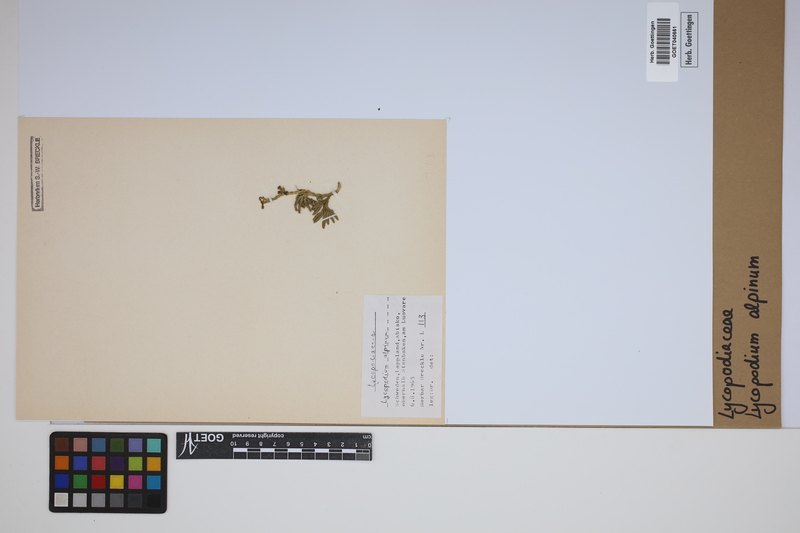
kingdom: Plantae
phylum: Tracheophyta
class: Lycopodiopsida
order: Lycopodiales
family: Lycopodiaceae
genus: Diphasiastrum
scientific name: Diphasiastrum alpinum
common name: Alpine clubmoss
